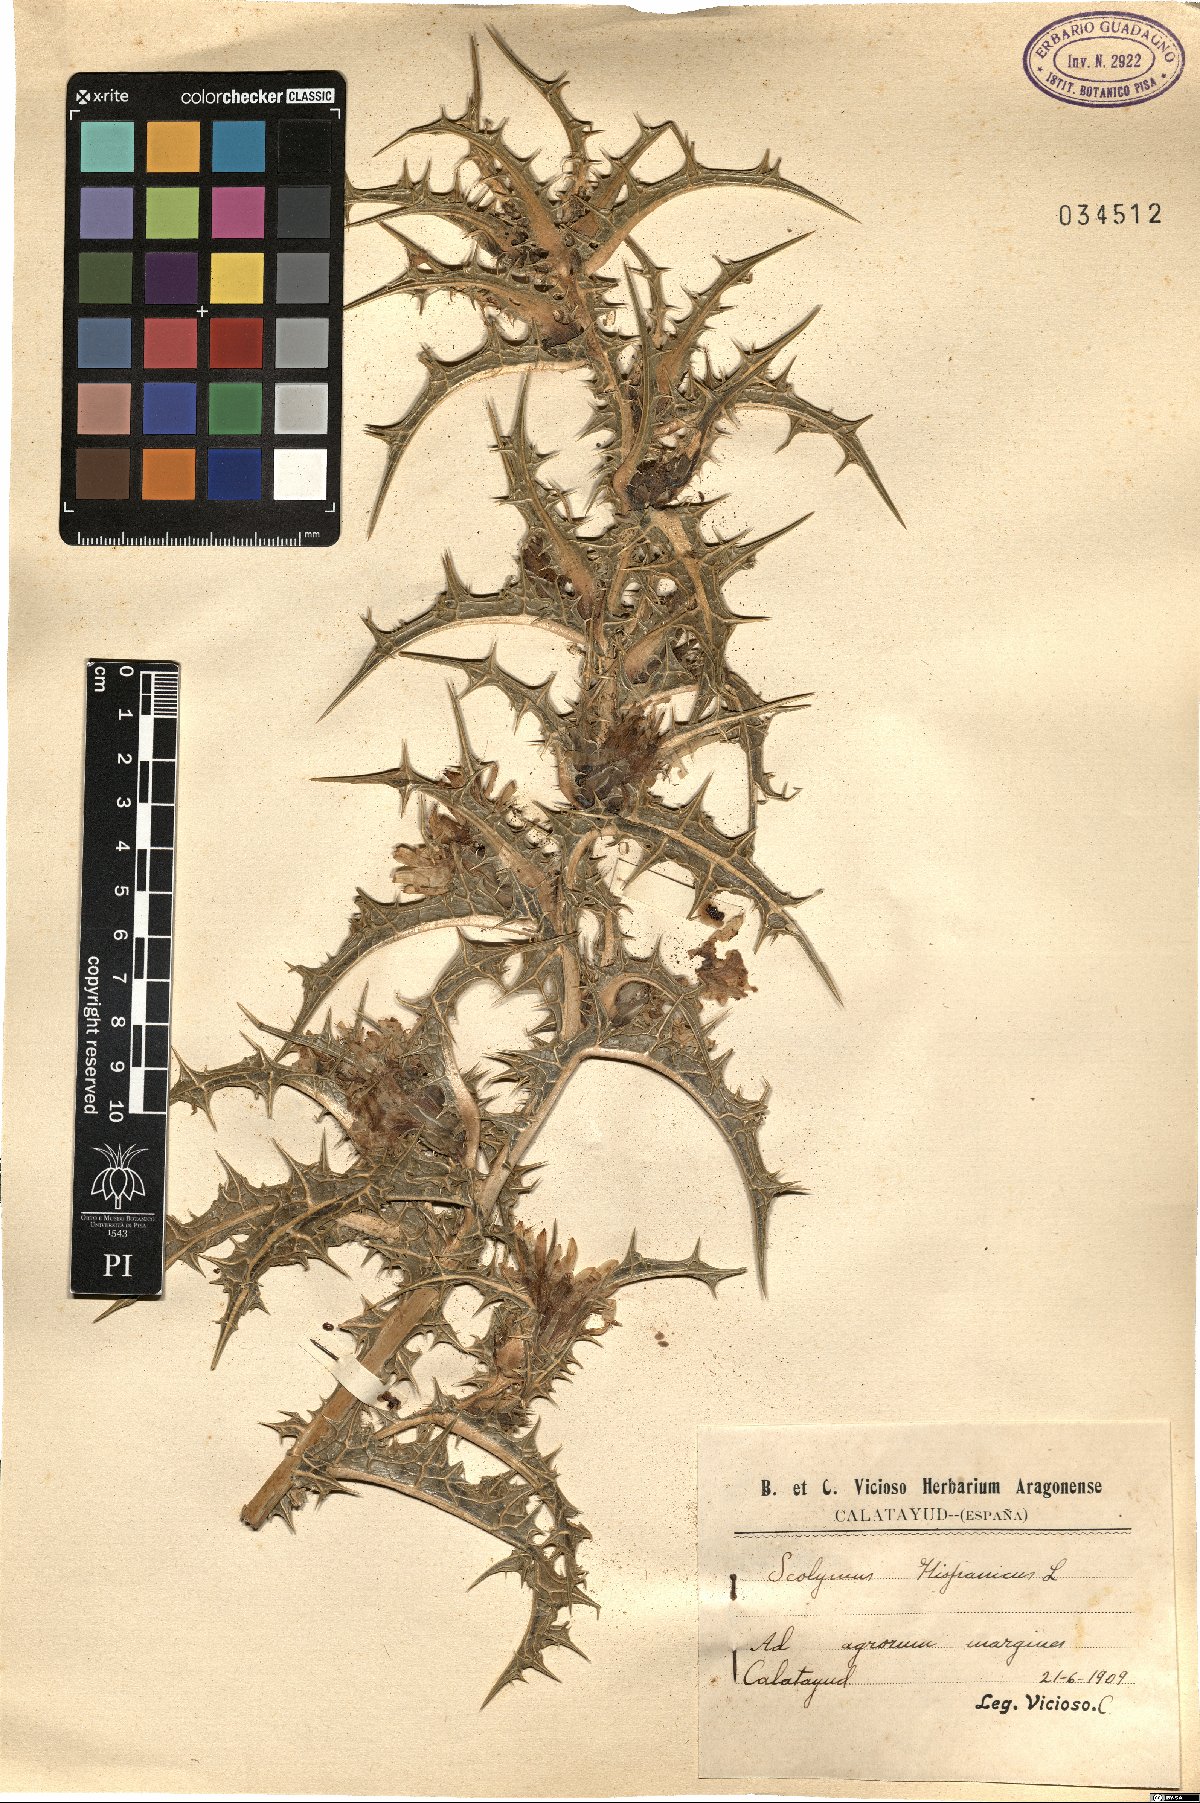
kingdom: Plantae
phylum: Tracheophyta
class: Magnoliopsida
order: Asterales
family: Asteraceae
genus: Scolymus
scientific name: Scolymus hispanicus
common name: Golden thistle
